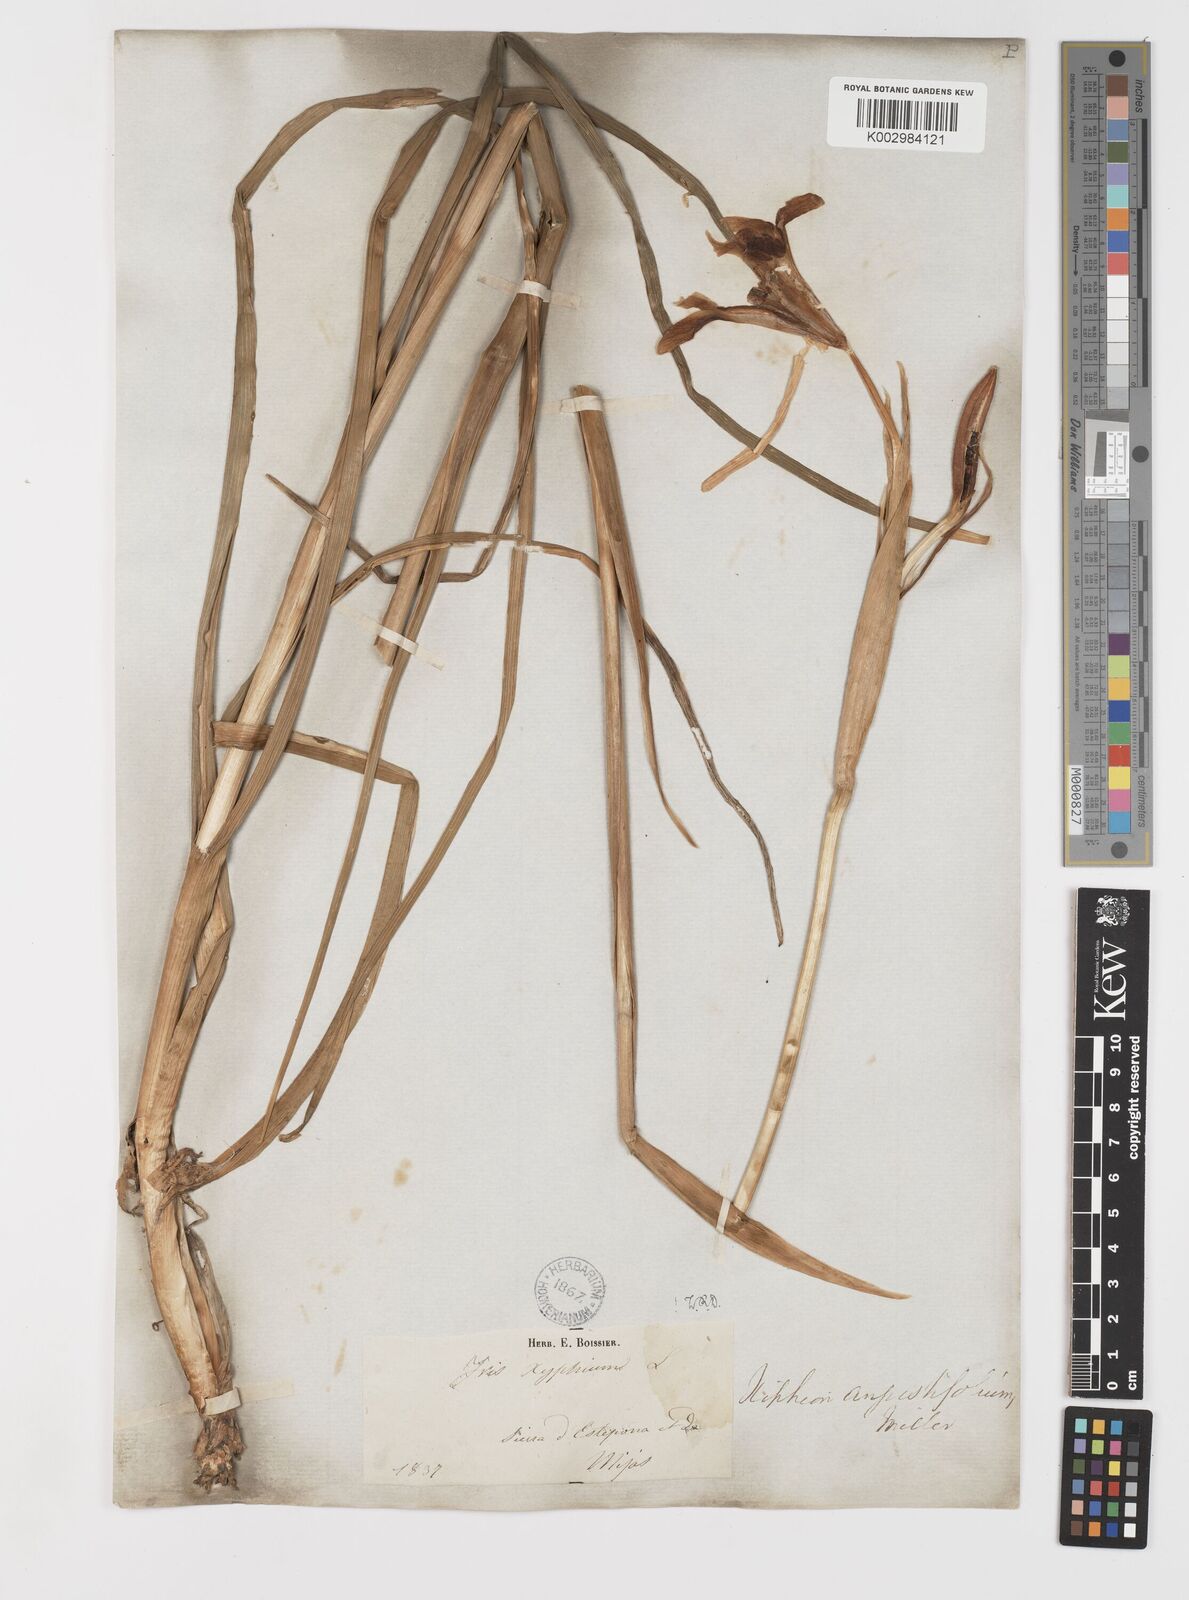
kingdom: Plantae
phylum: Tracheophyta
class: Liliopsida
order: Asparagales
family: Iridaceae
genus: Iris
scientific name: Iris xiphium
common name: Spanish iris
